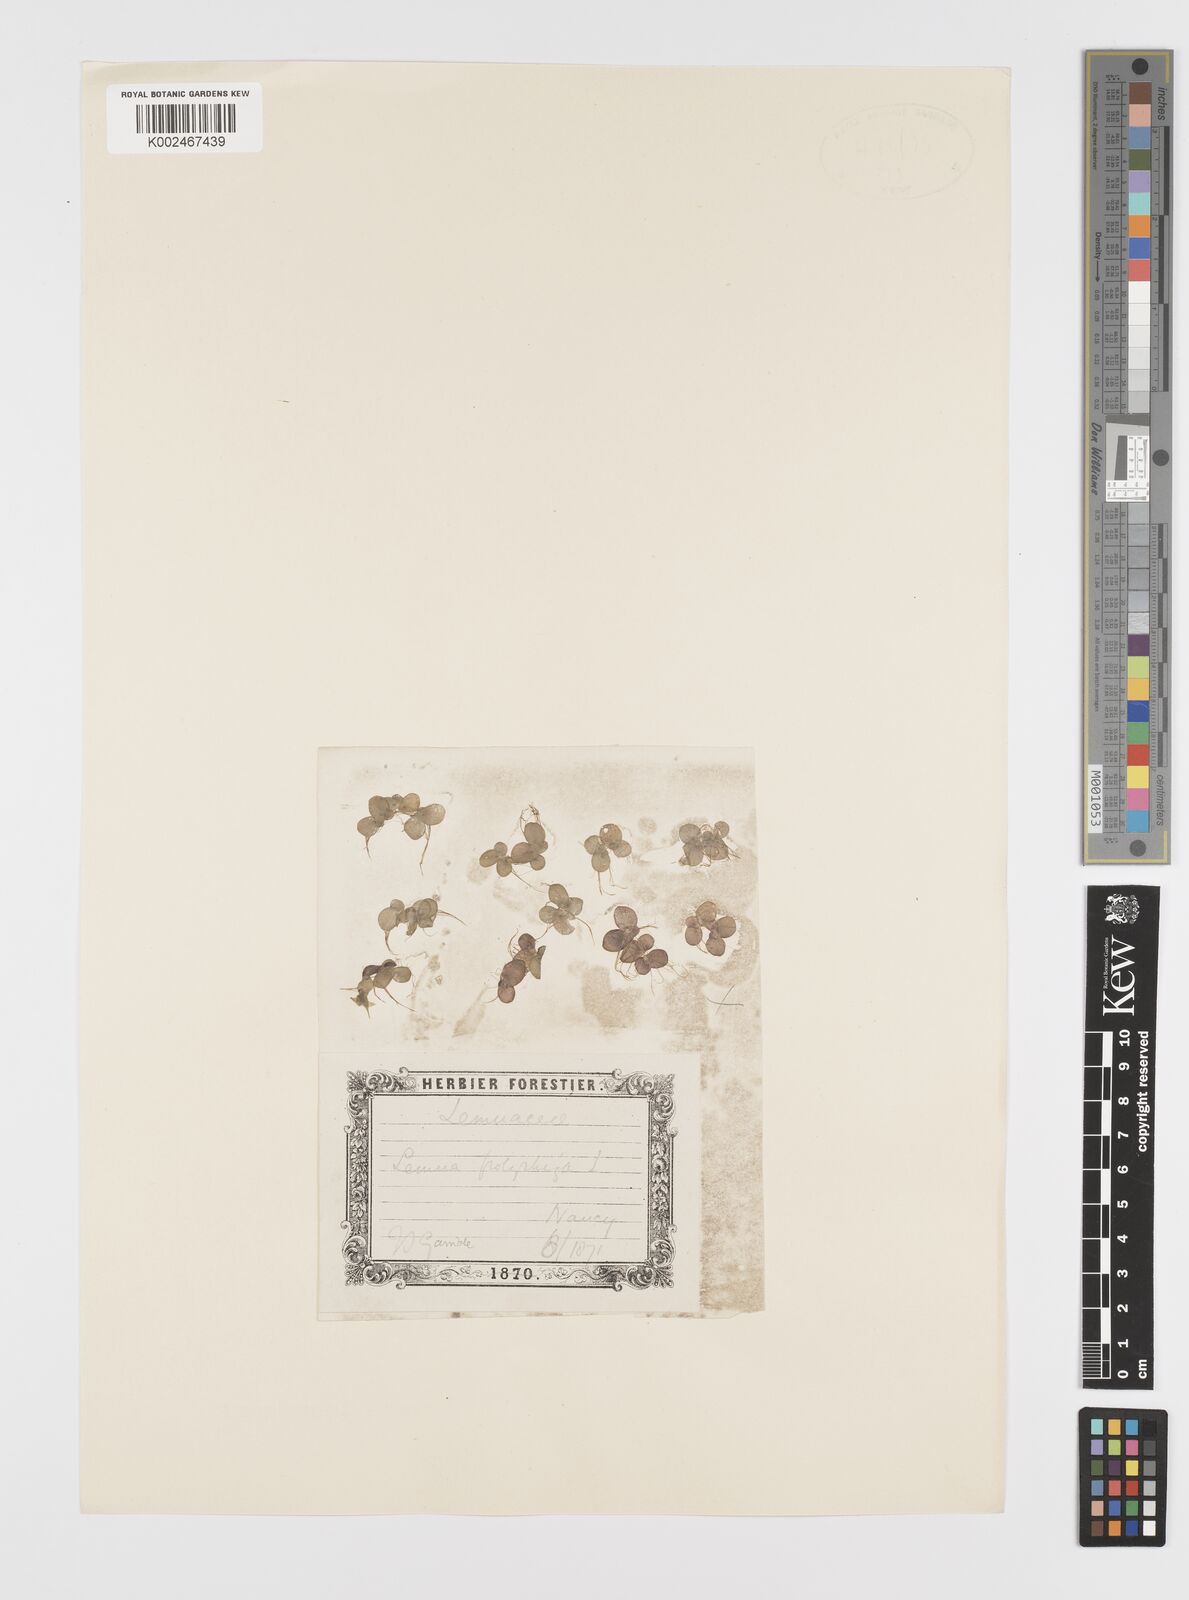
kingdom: Plantae
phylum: Tracheophyta
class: Liliopsida
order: Alismatales
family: Araceae
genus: Spirodela
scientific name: Spirodela polyrhiza
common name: Great duckweed
